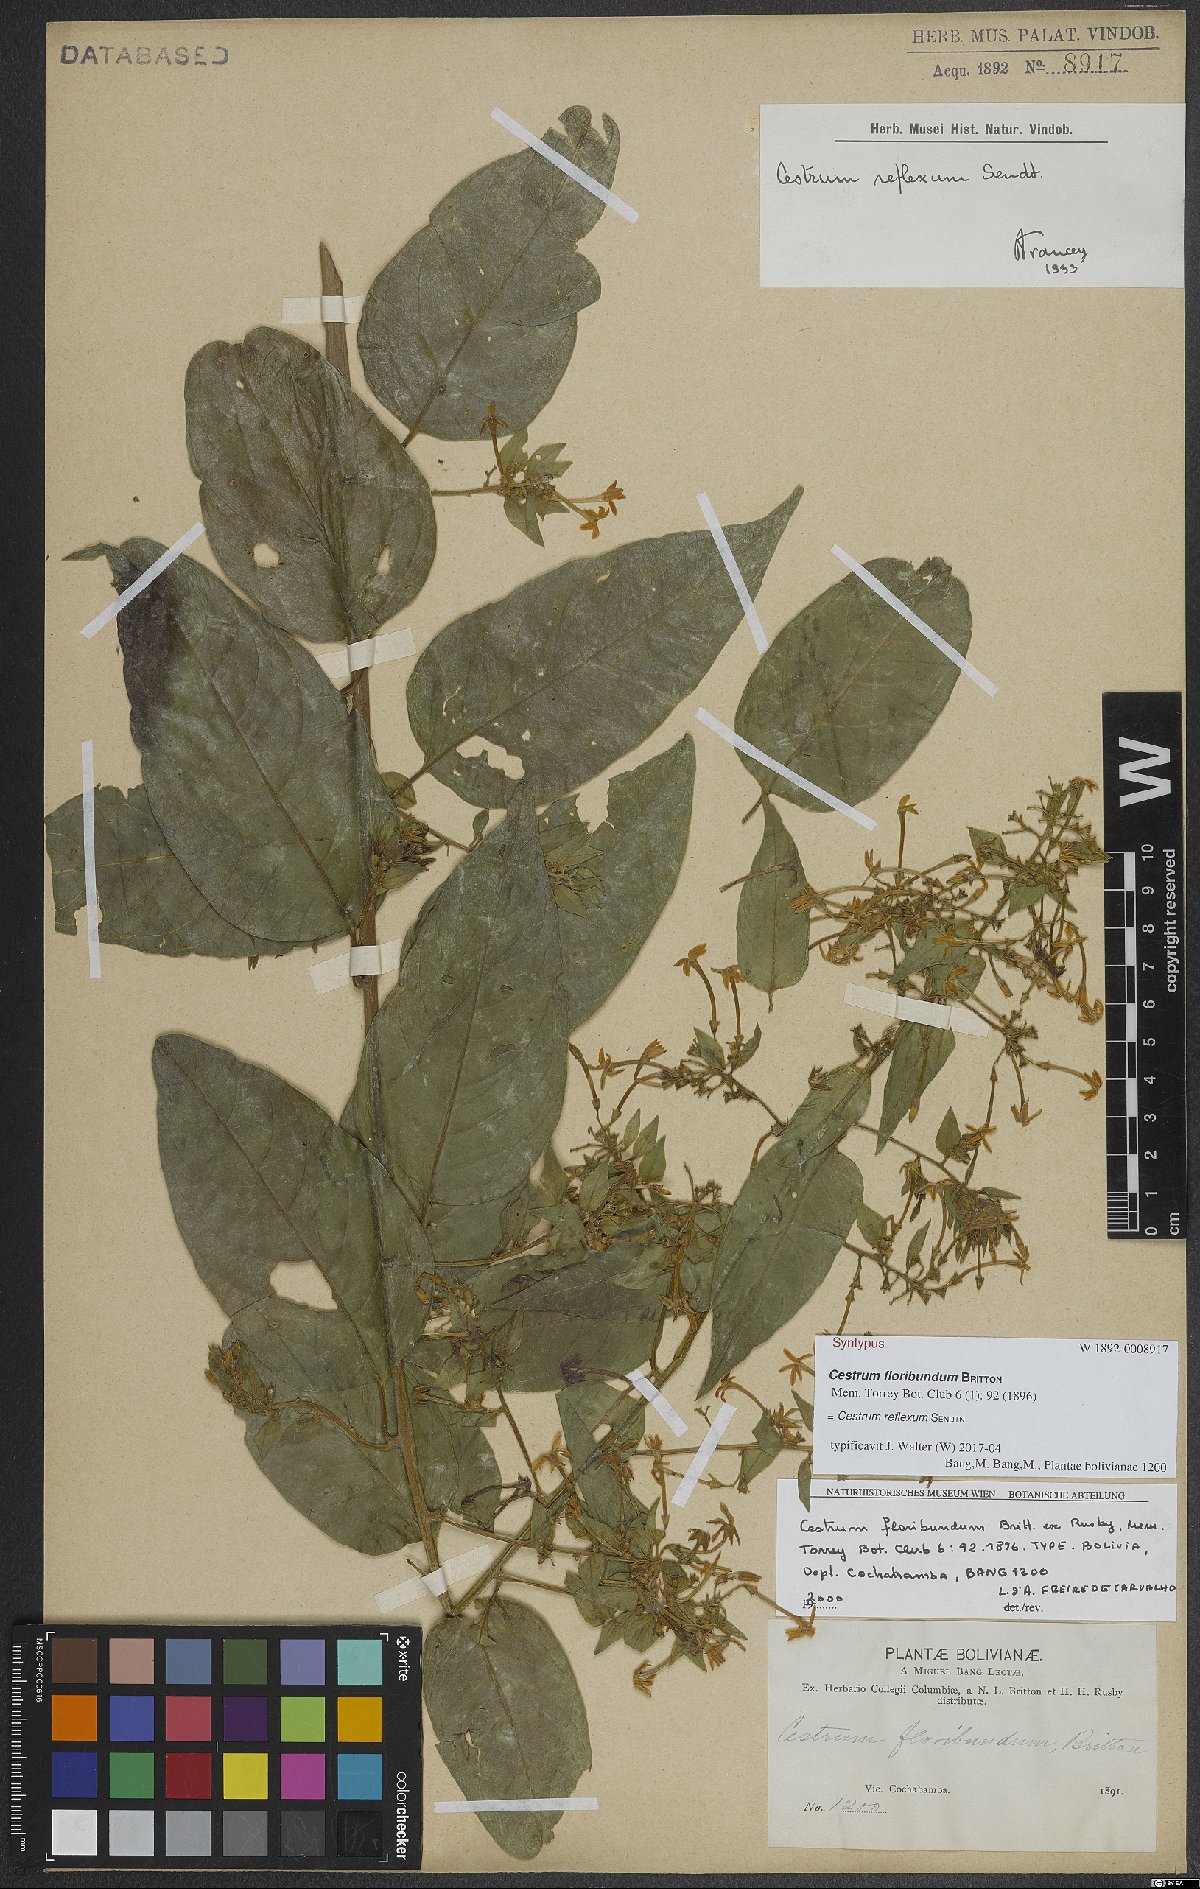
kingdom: Plantae
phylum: Tracheophyta
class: Magnoliopsida
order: Solanales
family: Solanaceae
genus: Cestrum
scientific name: Cestrum reflexum
